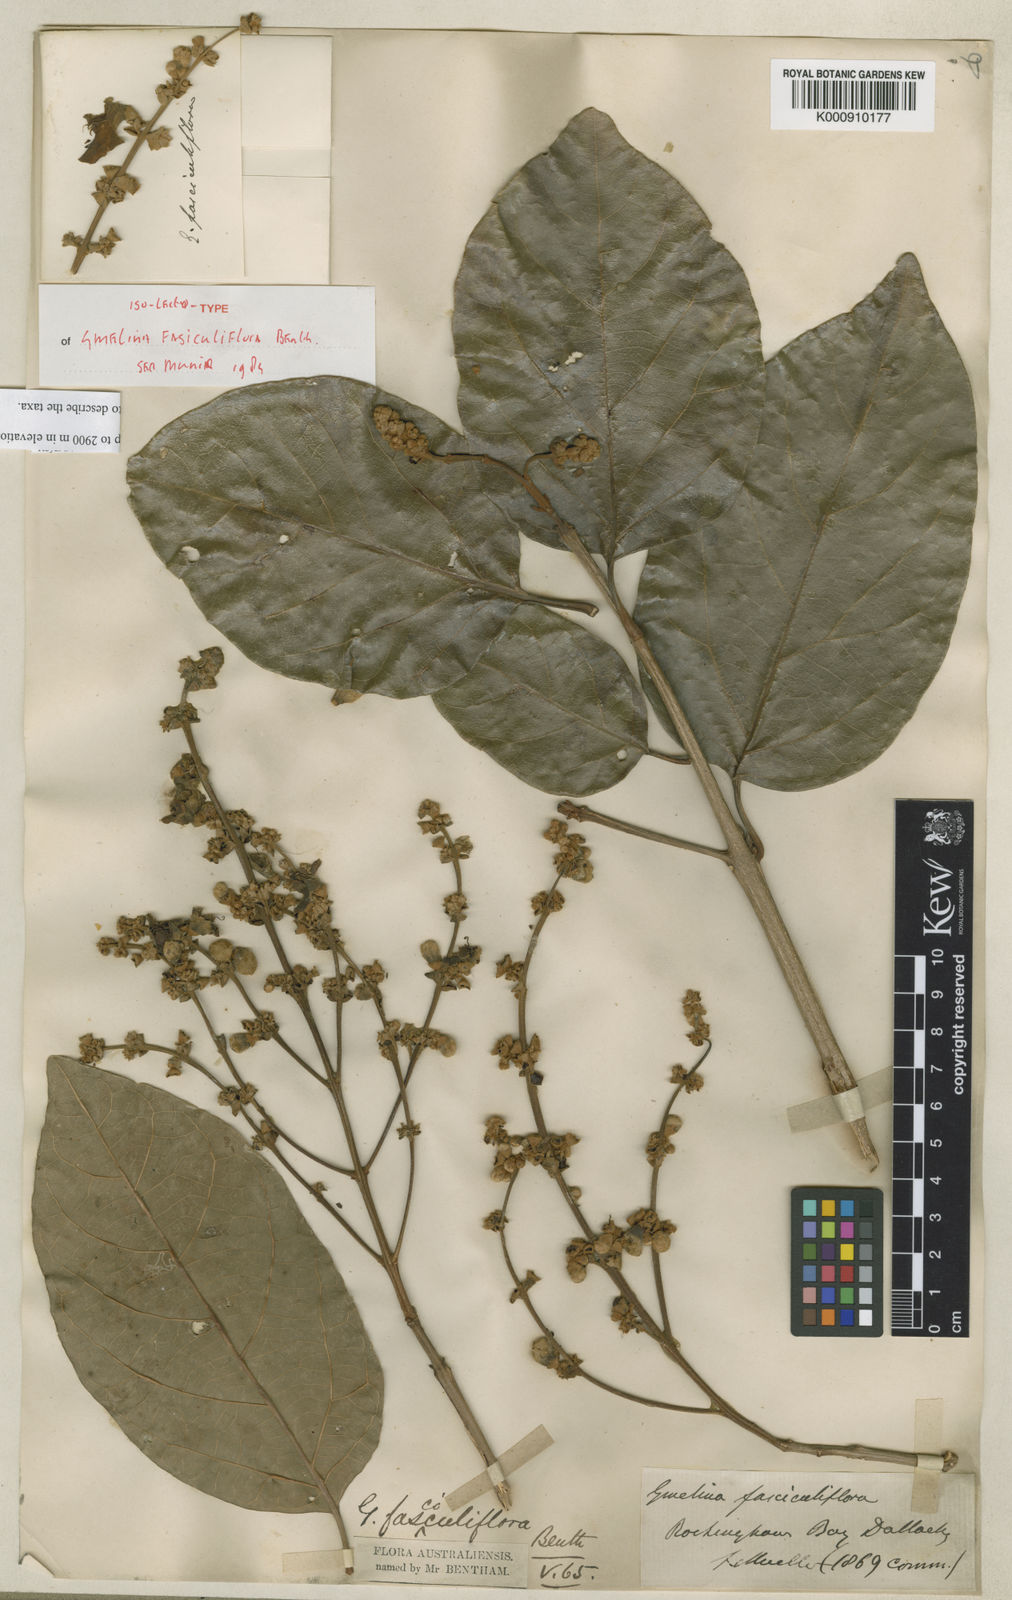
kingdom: Plantae
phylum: Tracheophyta
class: Magnoliopsida
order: Lamiales
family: Lamiaceae
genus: Gmelina
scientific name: Gmelina fasciculiflora
